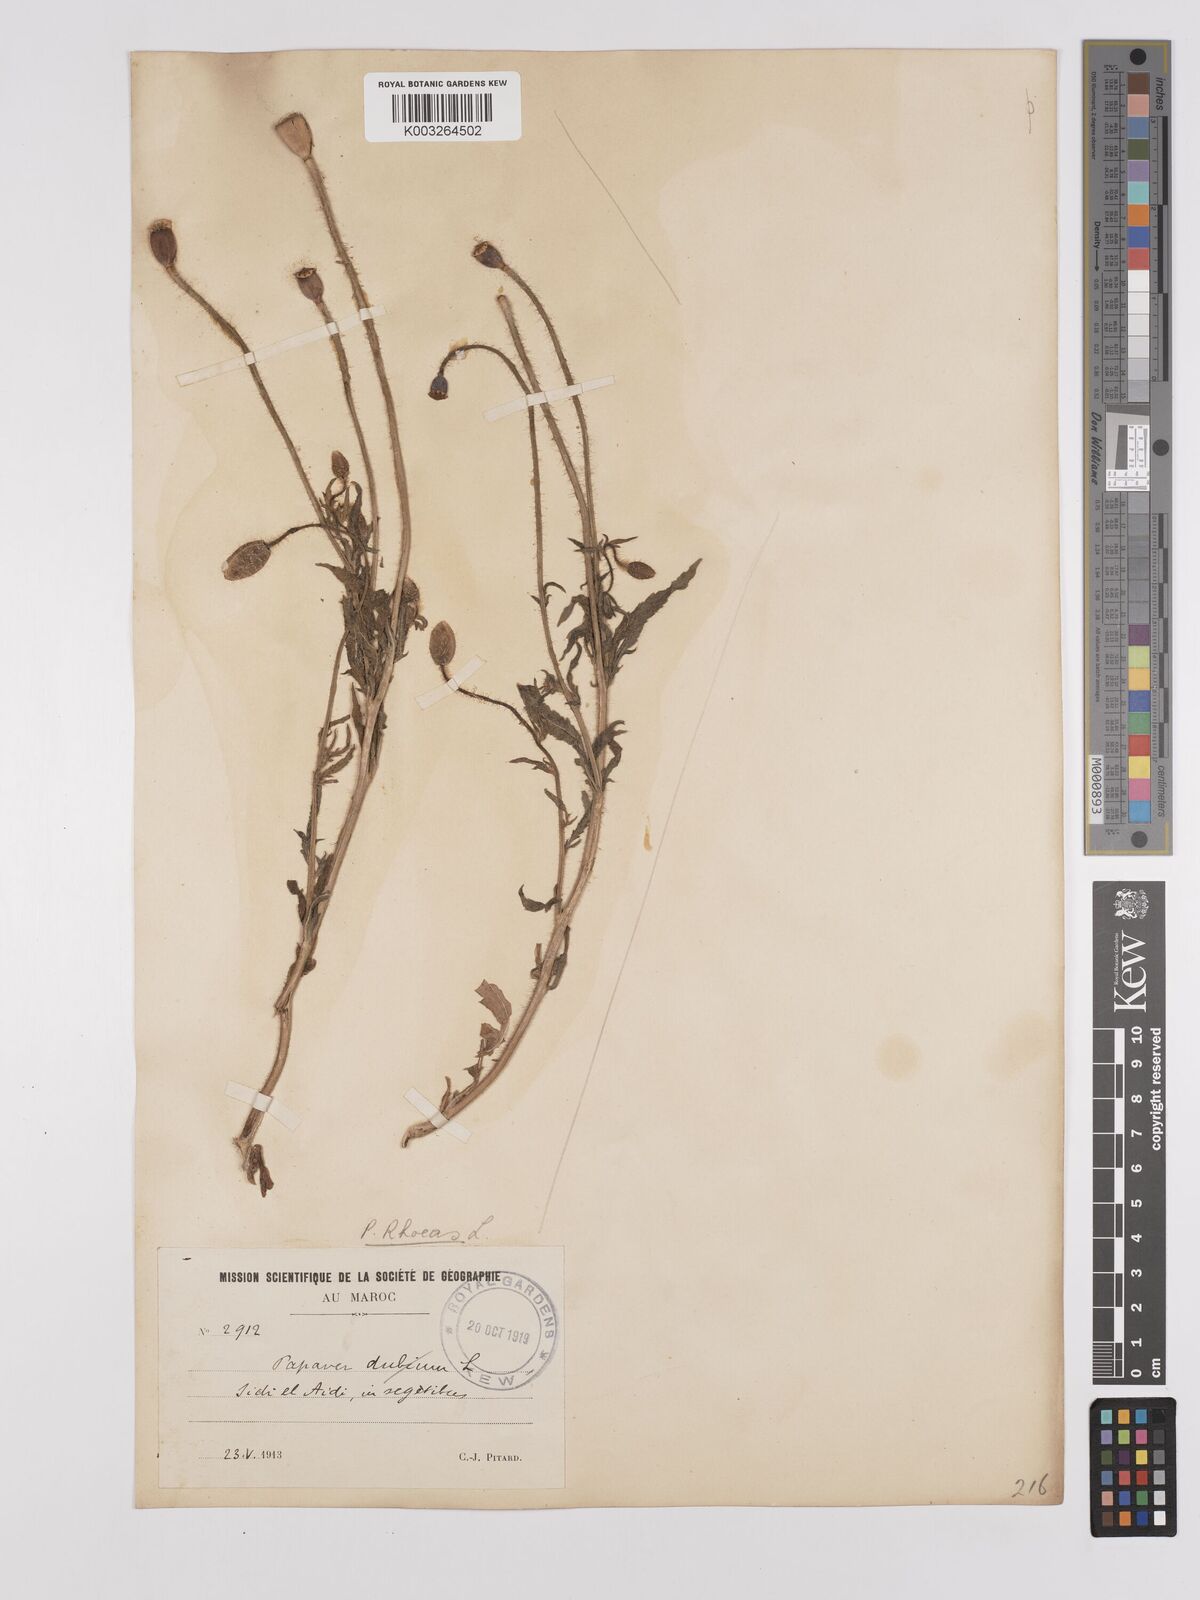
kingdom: Plantae
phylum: Tracheophyta
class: Magnoliopsida
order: Ranunculales
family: Papaveraceae
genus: Papaver
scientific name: Papaver rhoeas
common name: Corn poppy
